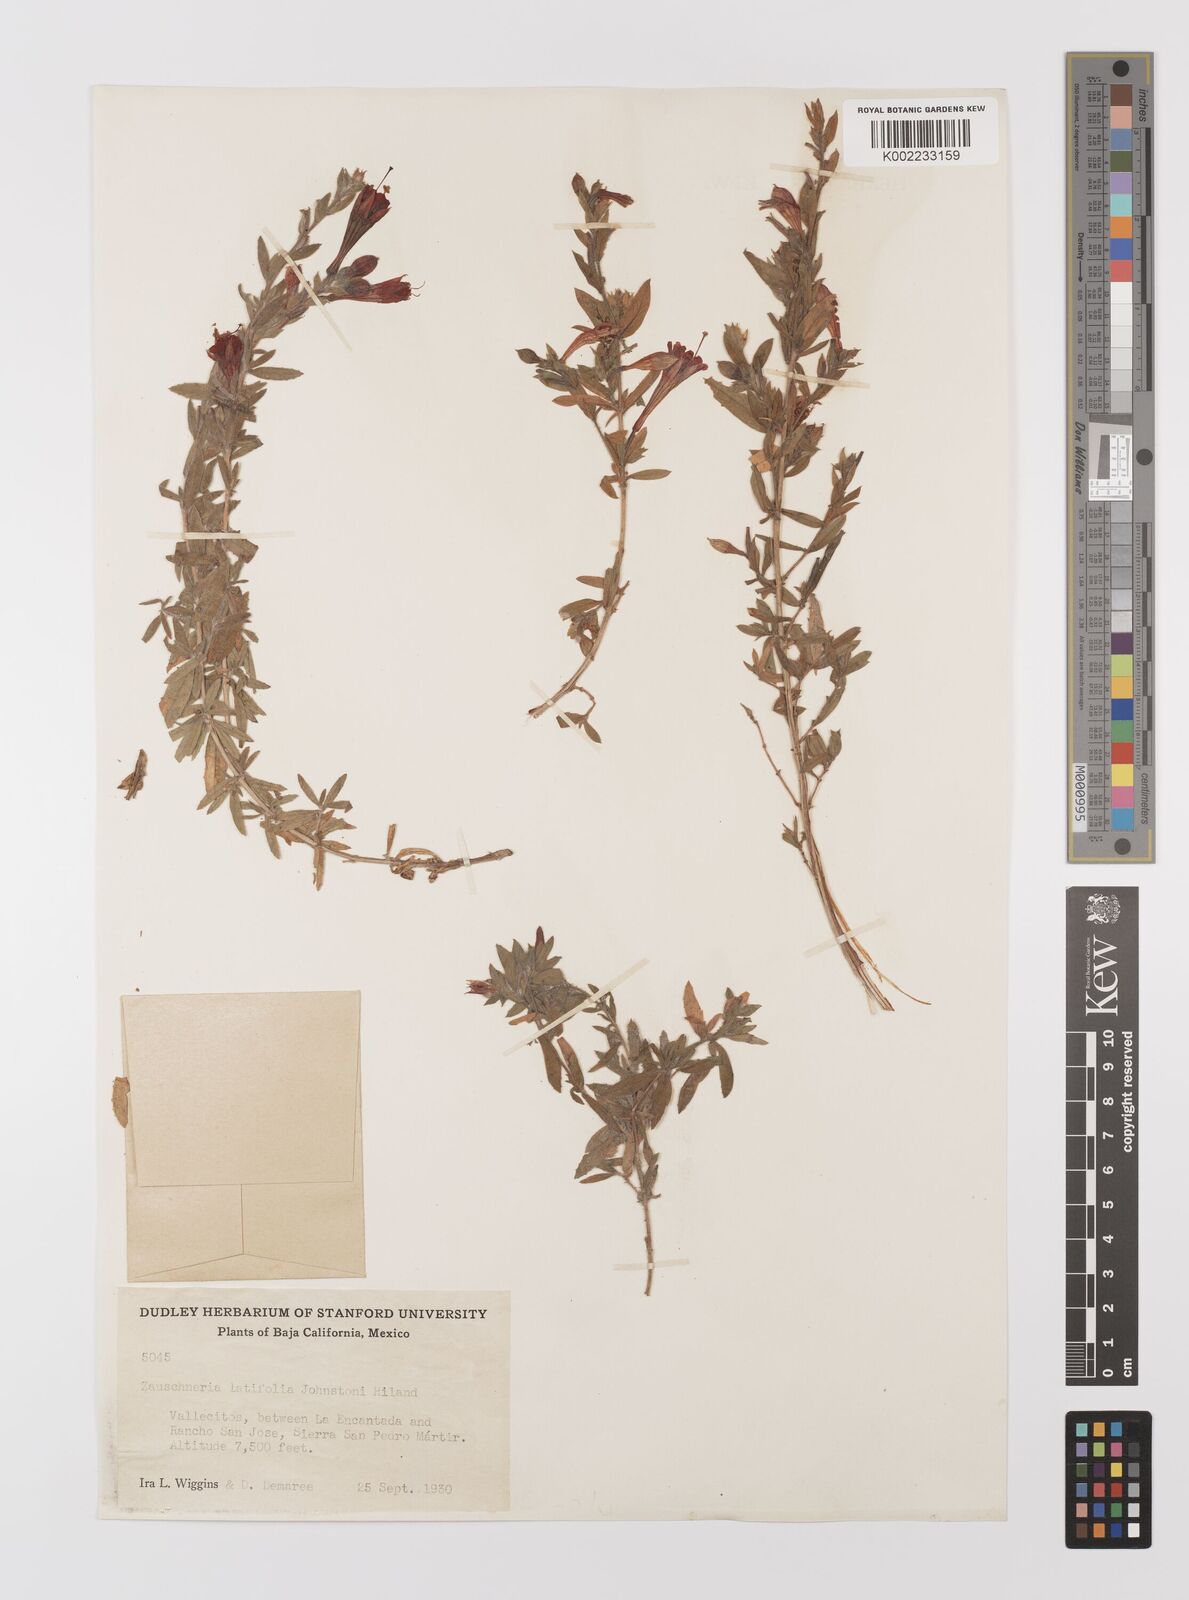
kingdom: Plantae
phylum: Tracheophyta
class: Magnoliopsida
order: Myrtales
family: Onagraceae
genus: Epilobium
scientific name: Epilobium canum
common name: California-fuchsia
